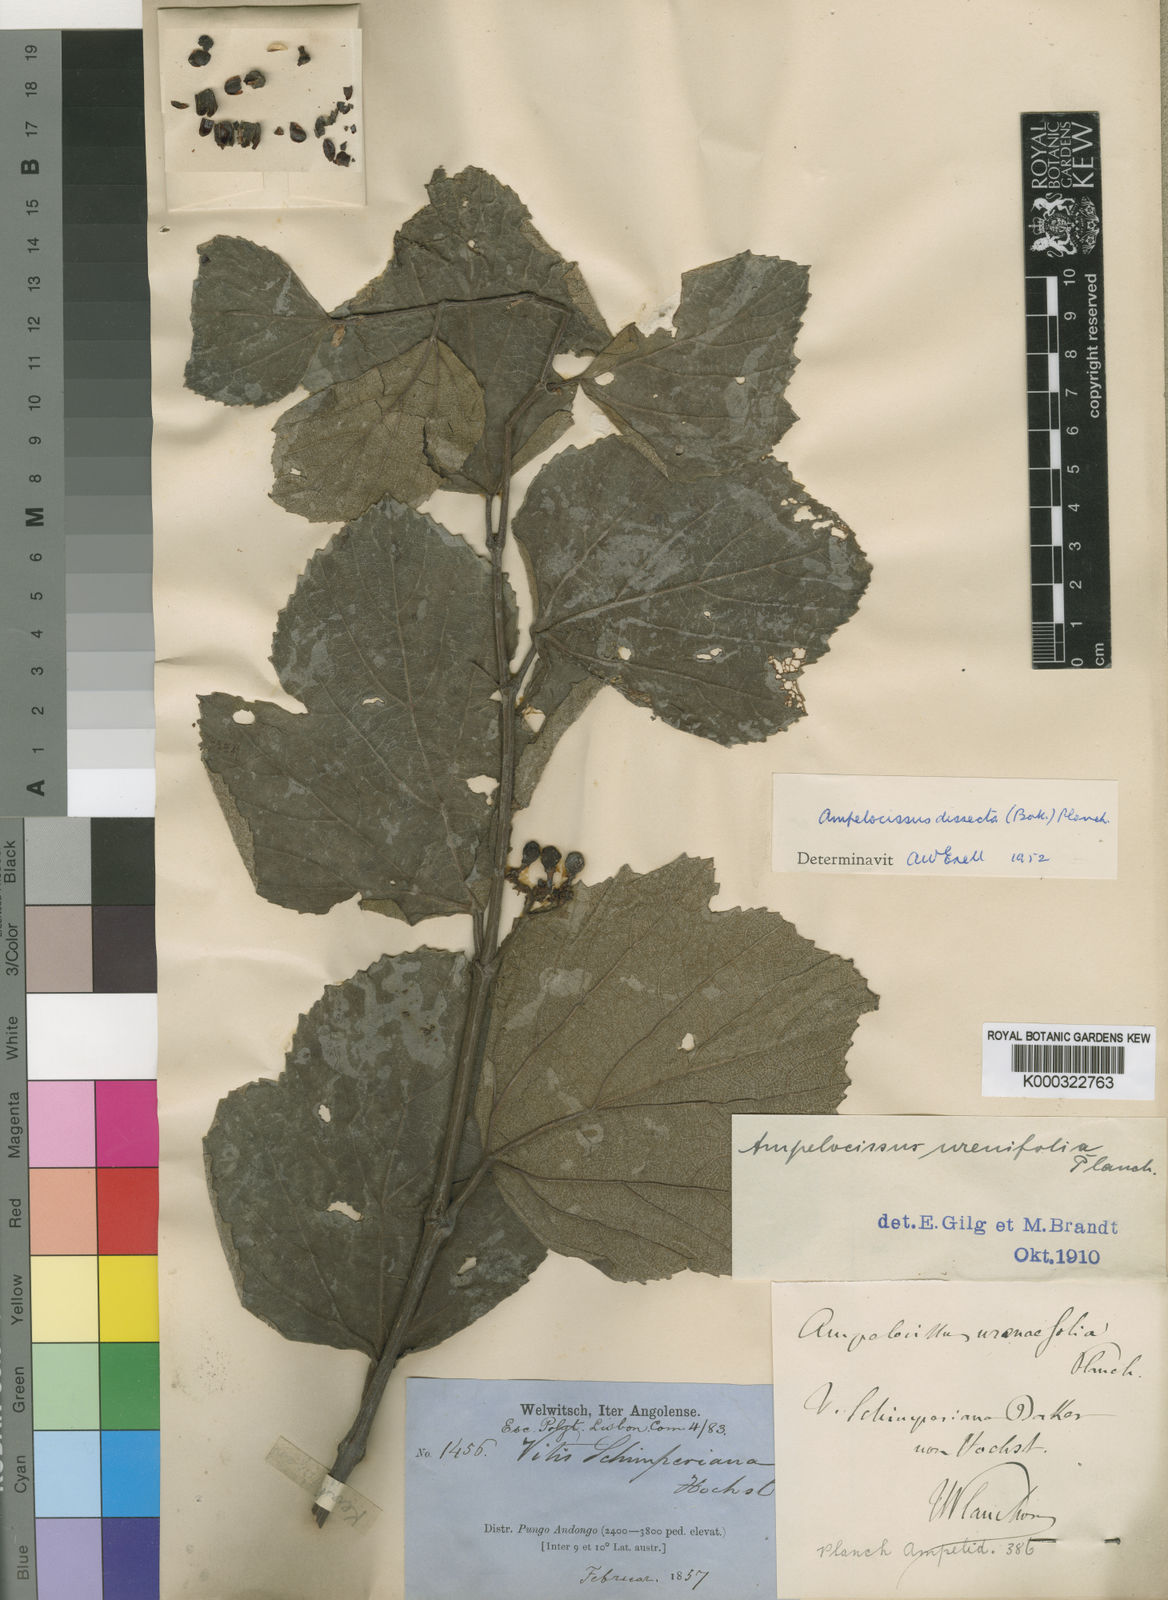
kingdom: Plantae
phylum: Tracheophyta
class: Magnoliopsida
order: Vitales
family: Vitaceae
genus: Ampelocissus
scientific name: Ampelocissus dissecta
